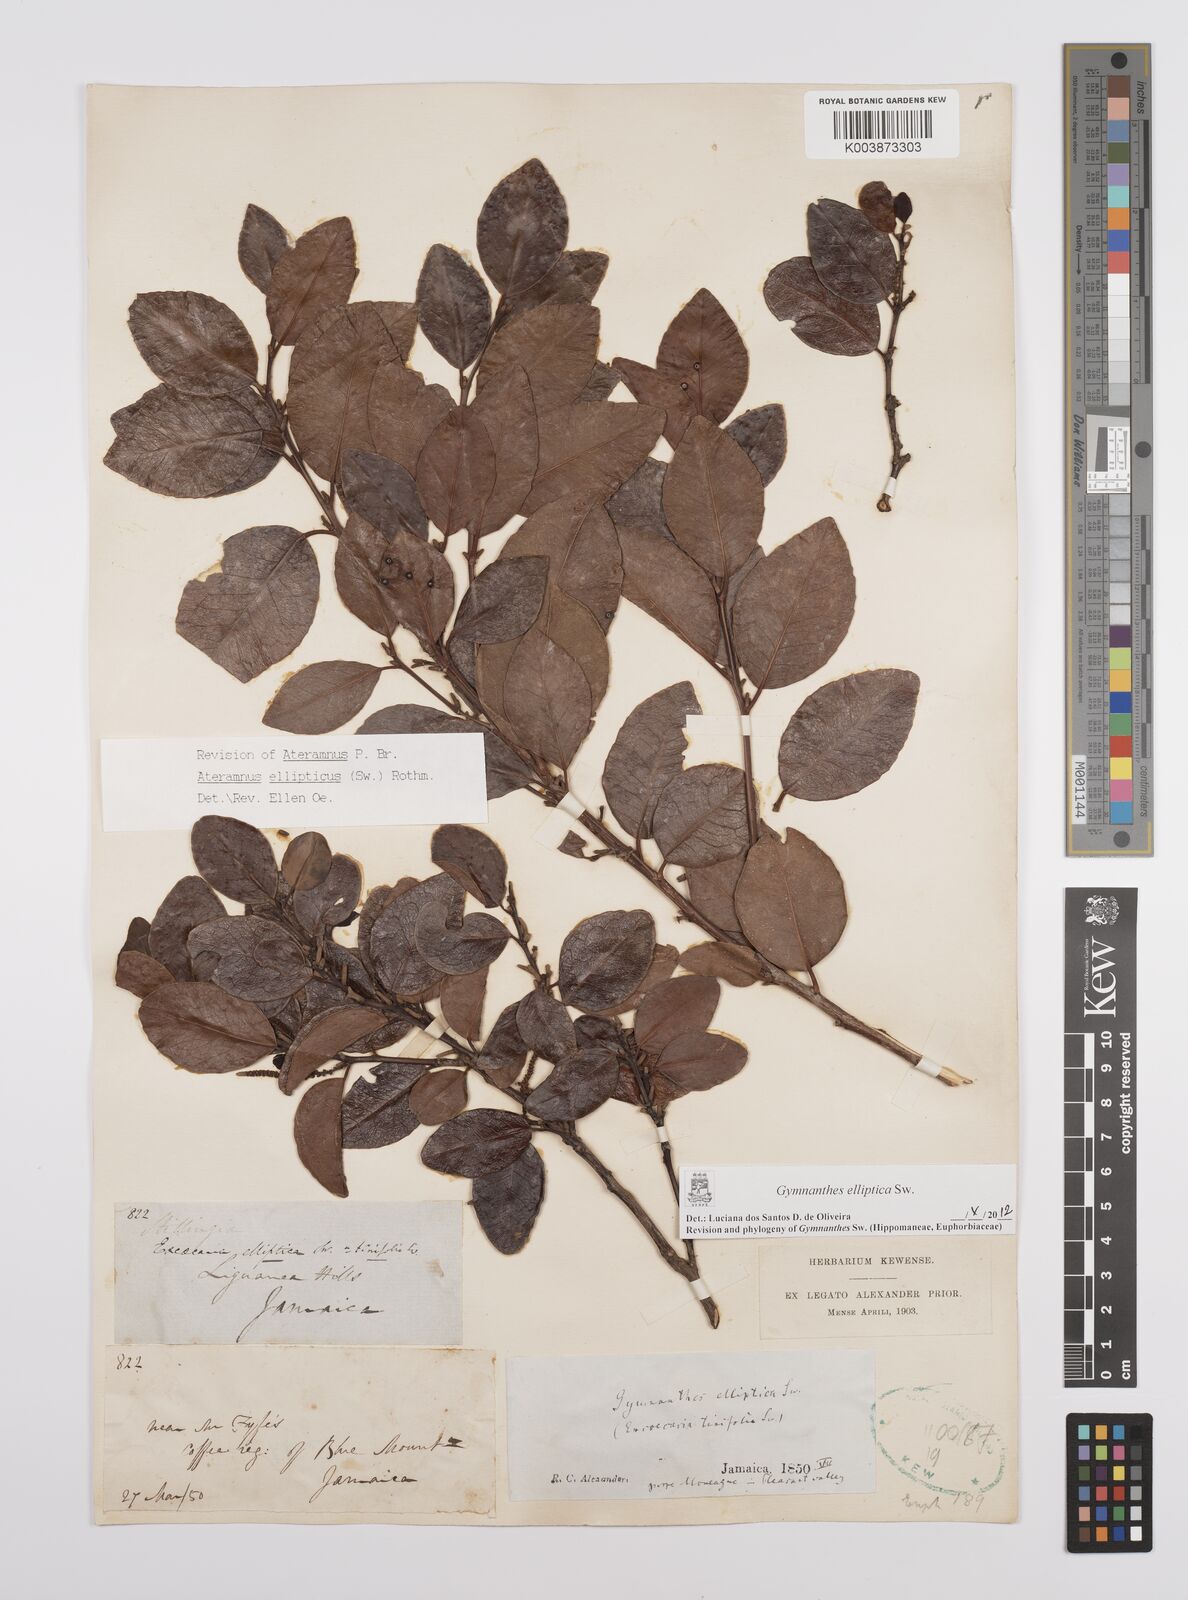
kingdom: Plantae
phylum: Tracheophyta
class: Magnoliopsida
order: Malpighiales
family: Euphorbiaceae
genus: Dendrocousinsia
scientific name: Dendrocousinsia elliptica
